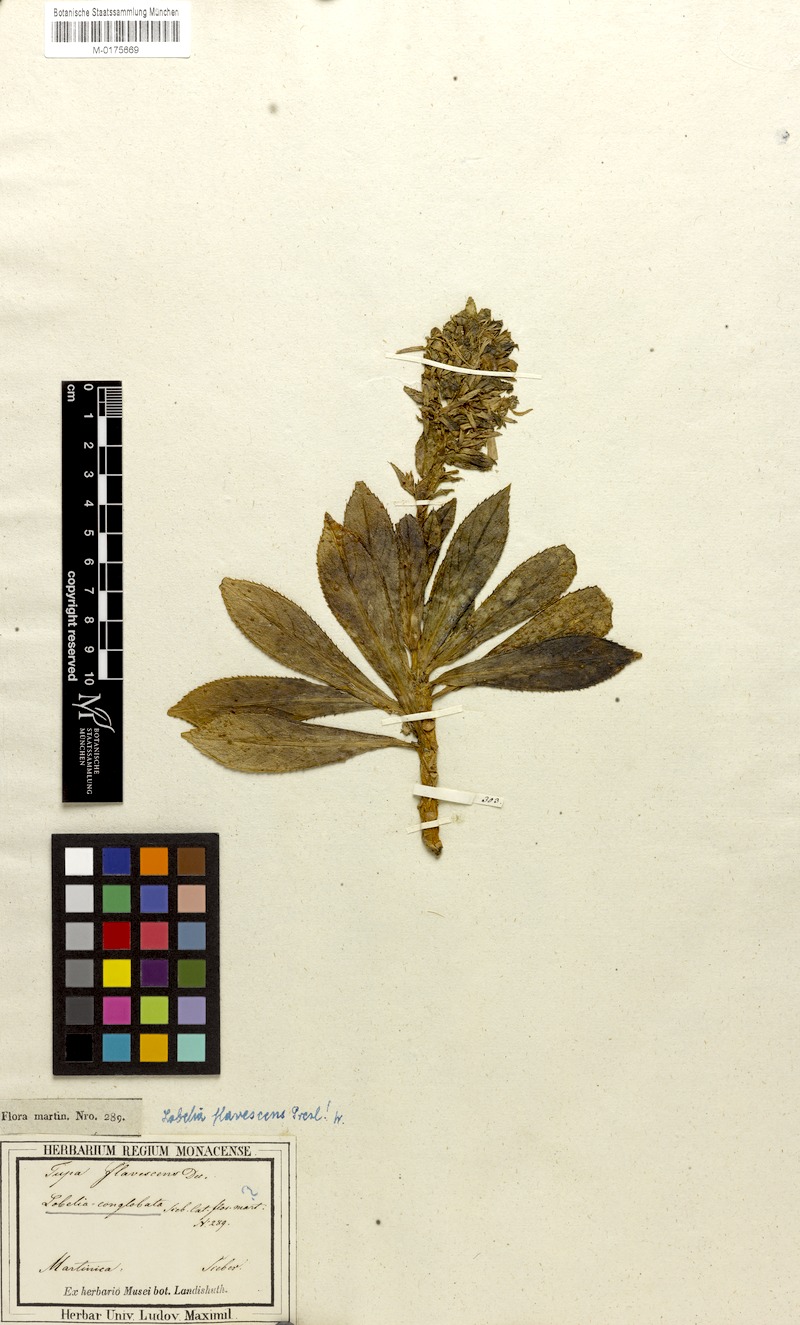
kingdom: Plantae
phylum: Tracheophyta
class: Magnoliopsida
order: Asterales
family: Campanulaceae
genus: Lobelia
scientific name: Lobelia stricta
